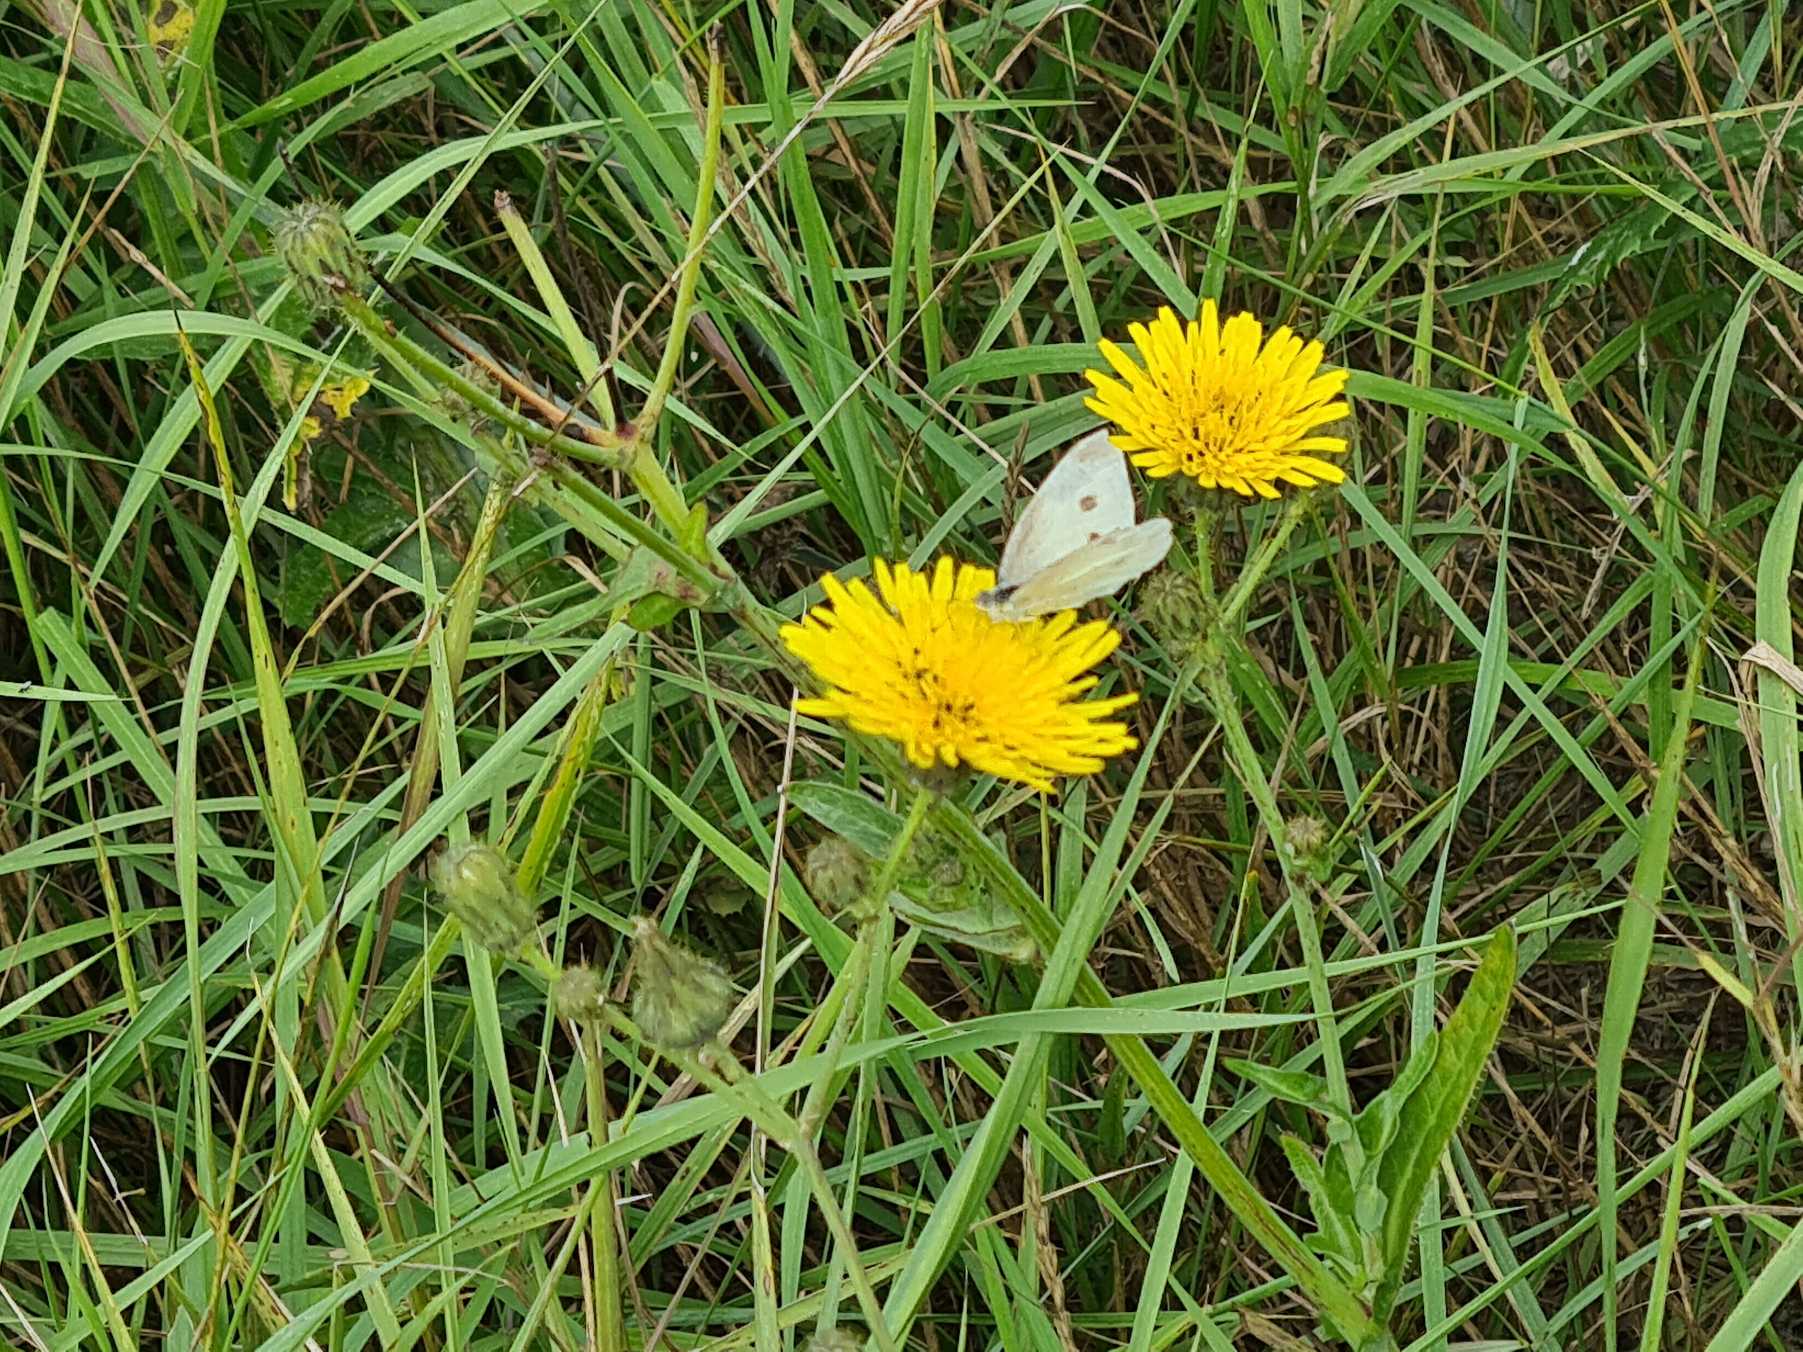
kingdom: Animalia
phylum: Arthropoda
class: Insecta
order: Lepidoptera
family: Pieridae
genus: Pieris
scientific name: Pieris rapae
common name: Lille kålsommerfugl
